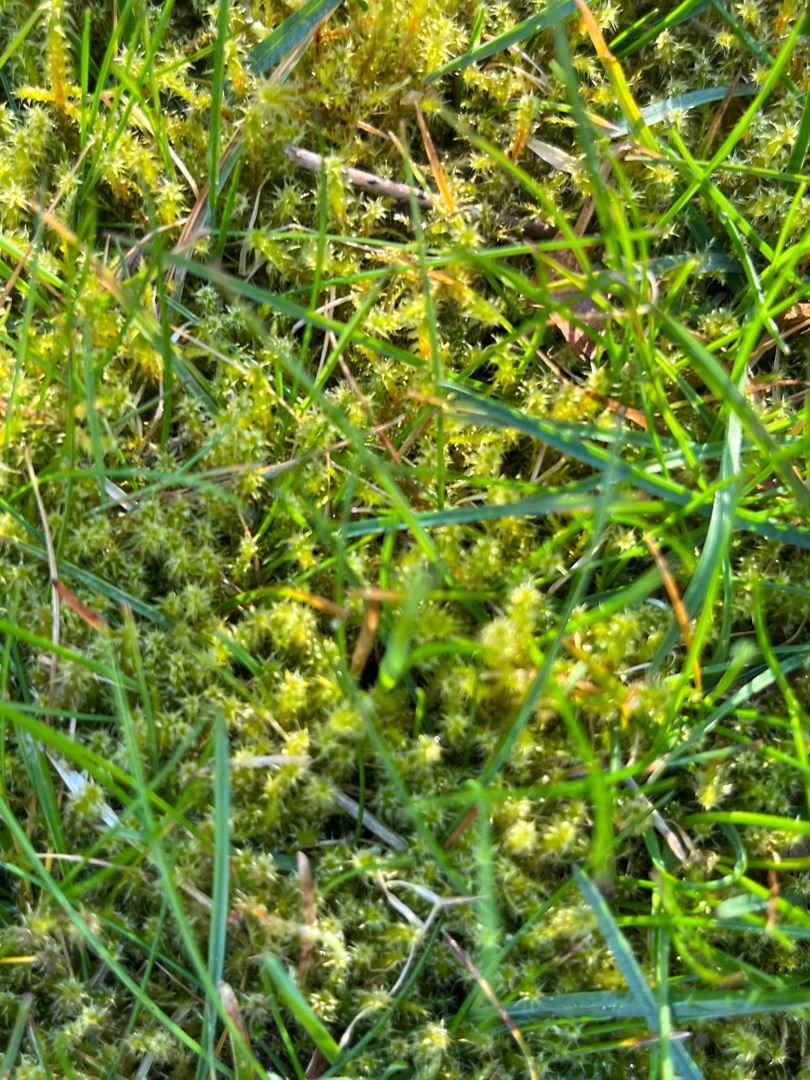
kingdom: Plantae
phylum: Bryophyta
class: Bryopsida
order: Hypnales
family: Hylocomiaceae
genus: Rhytidiadelphus
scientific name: Rhytidiadelphus squarrosus
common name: Plæne-kransemos
